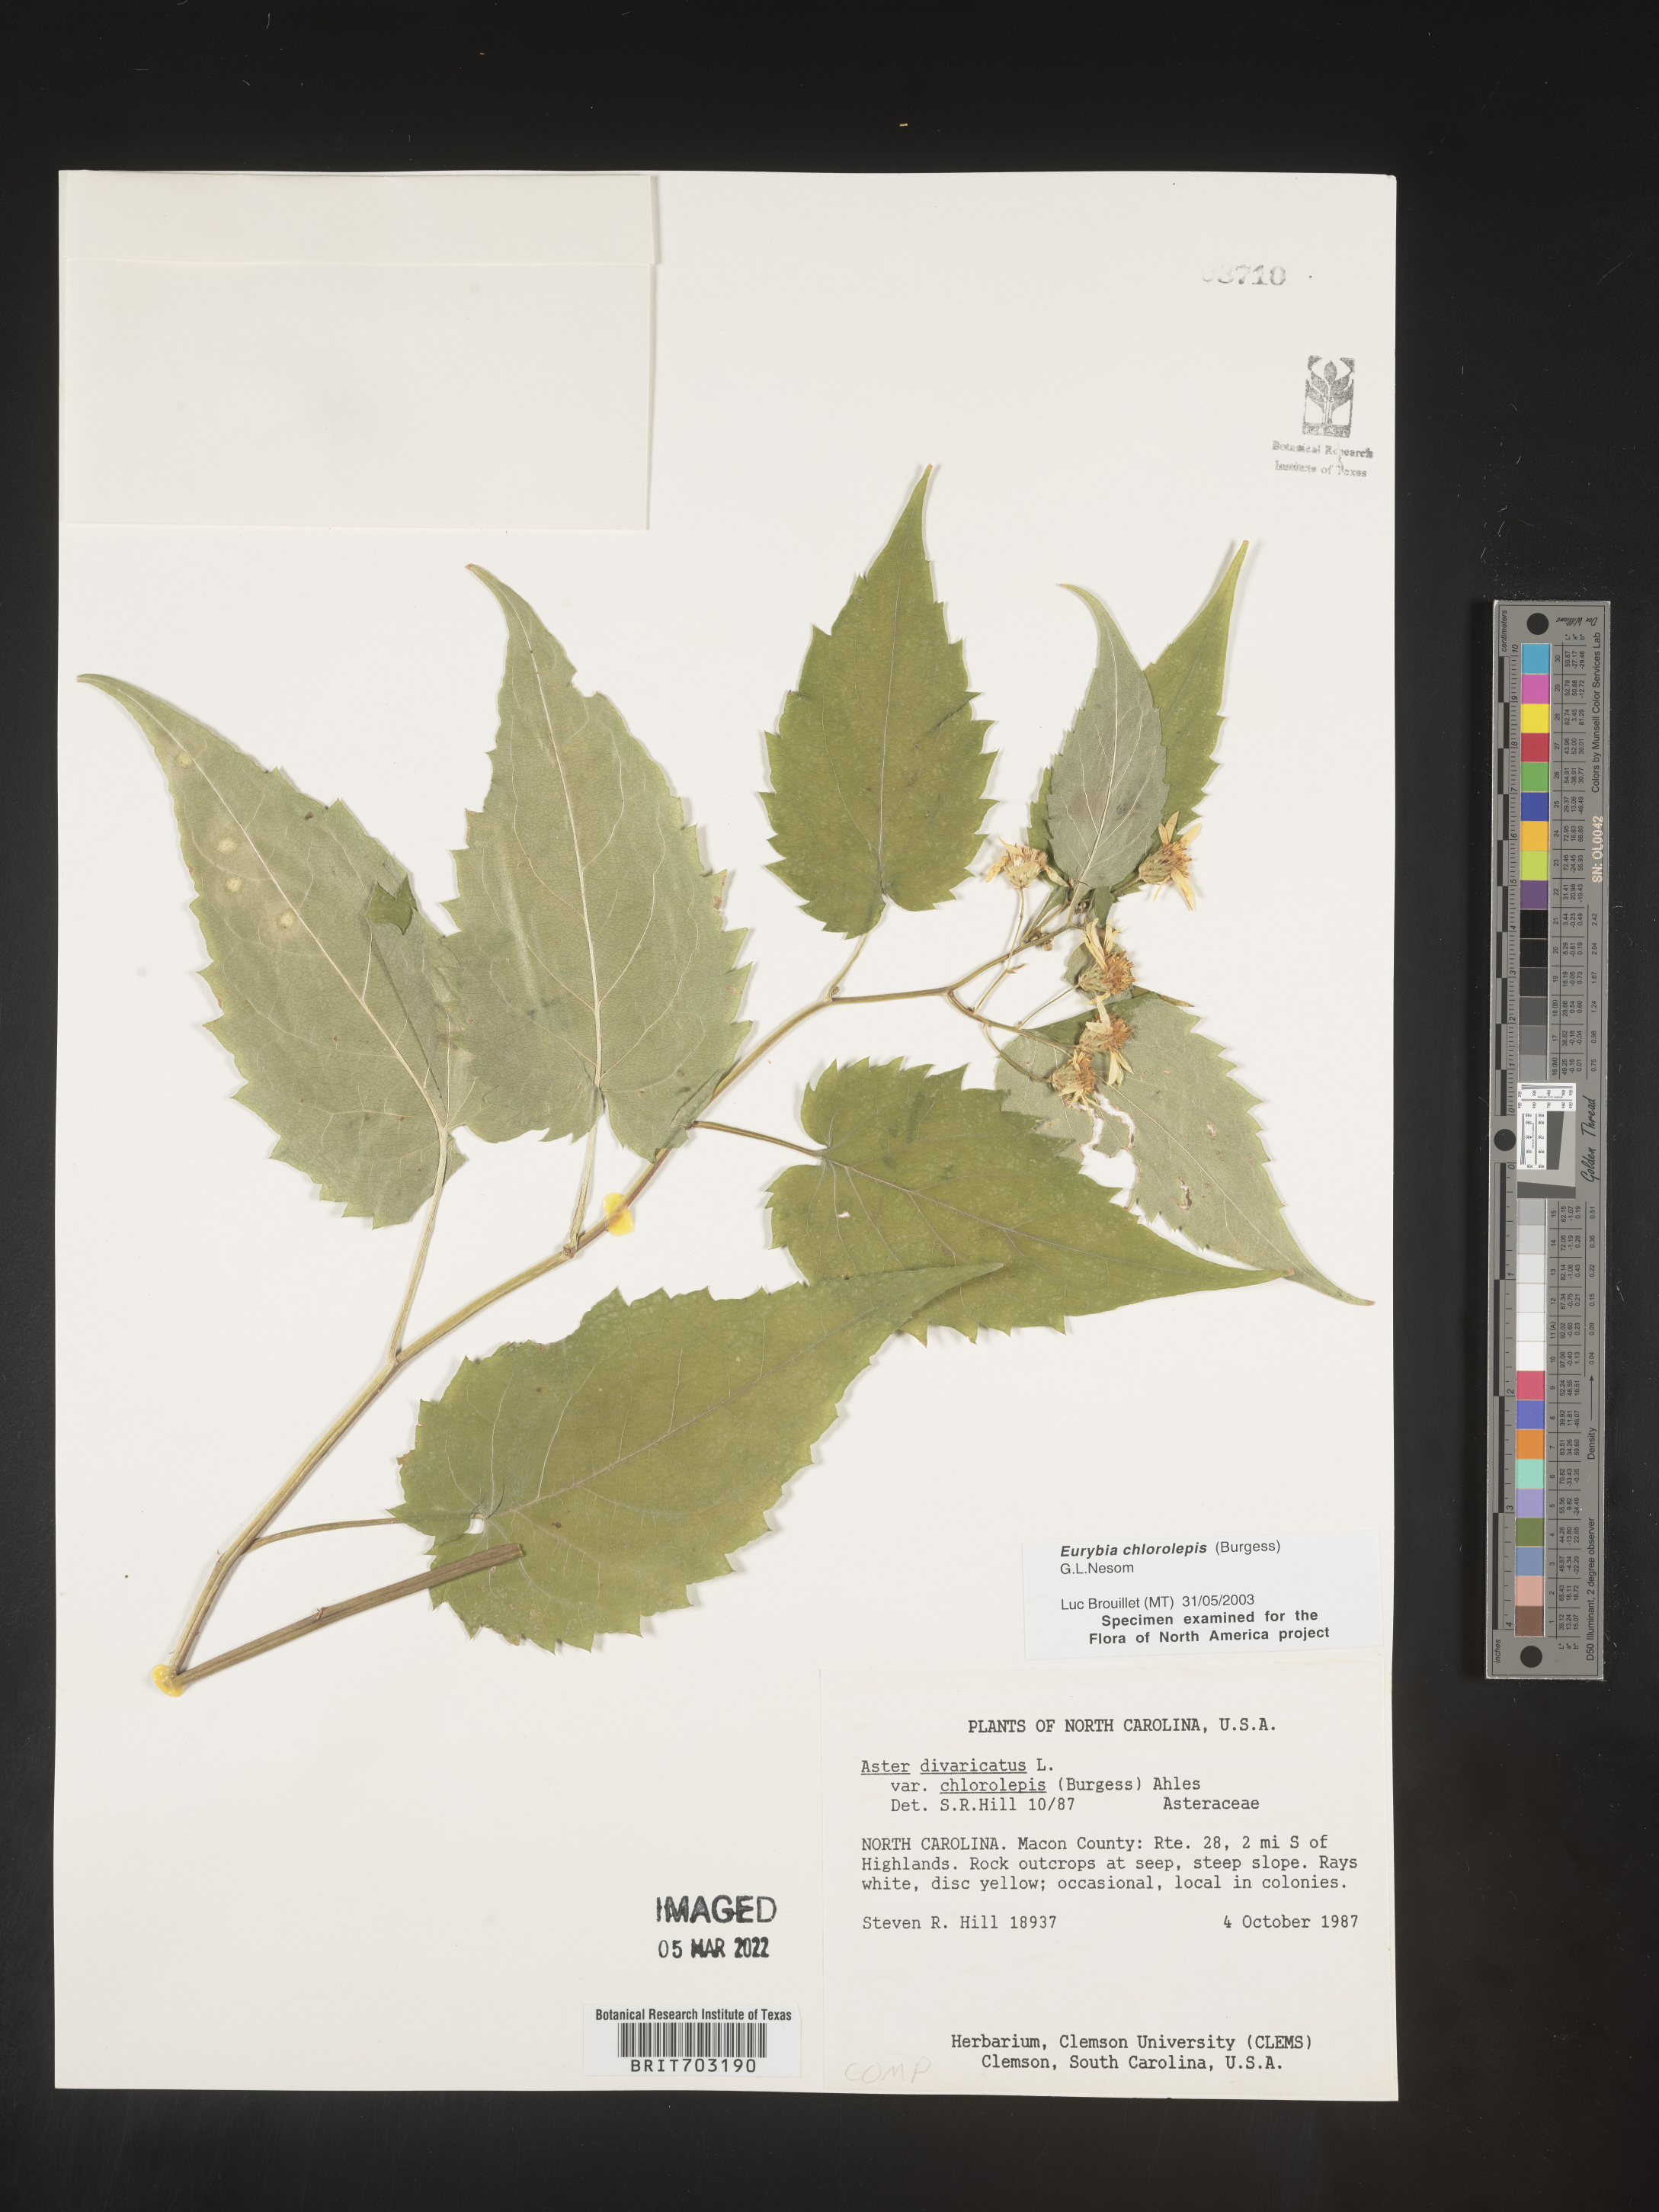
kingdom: Plantae
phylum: Tracheophyta
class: Magnoliopsida
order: Asterales
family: Asteraceae
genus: Eurybia
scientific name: Eurybia chlorolepis
